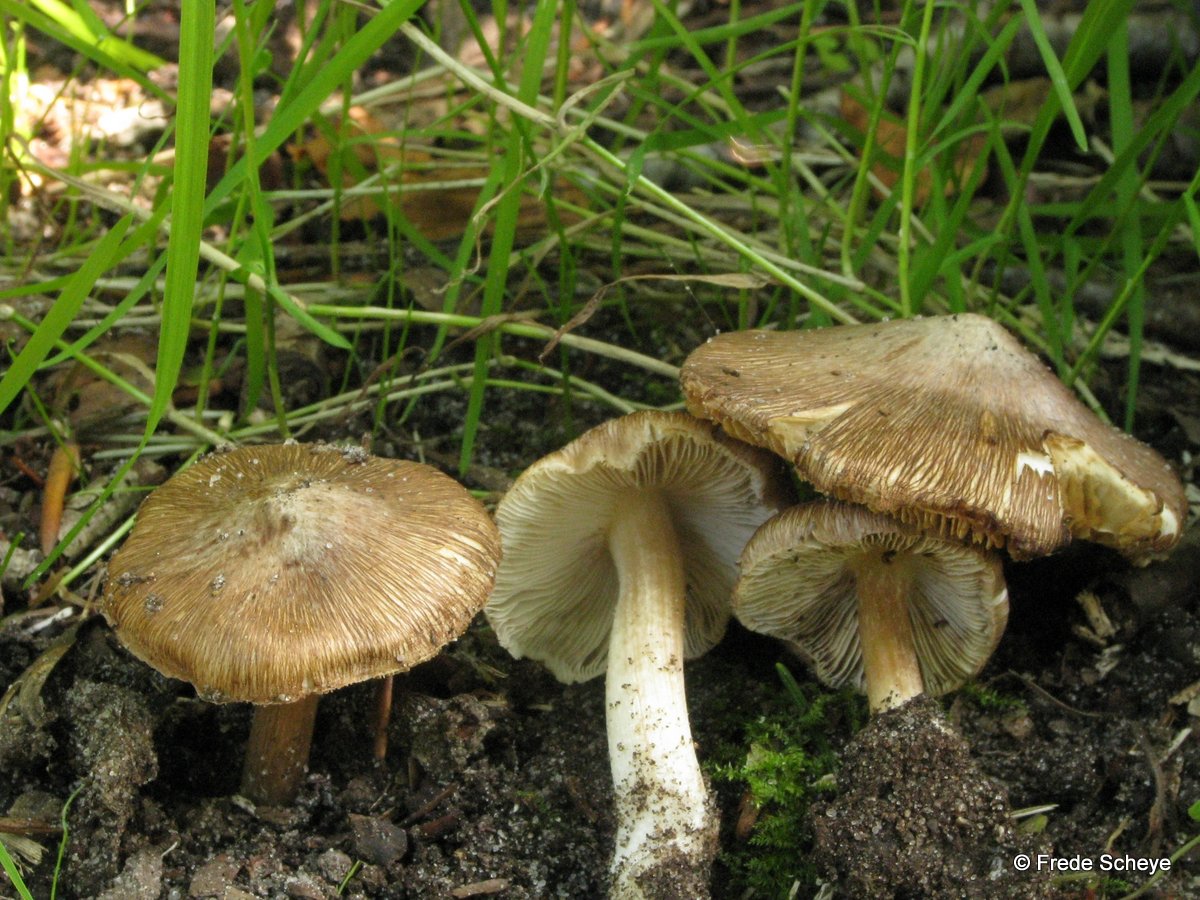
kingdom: Fungi
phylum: Basidiomycota
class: Agaricomycetes
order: Agaricales
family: Inocybaceae
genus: Inosperma
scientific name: Inosperma
